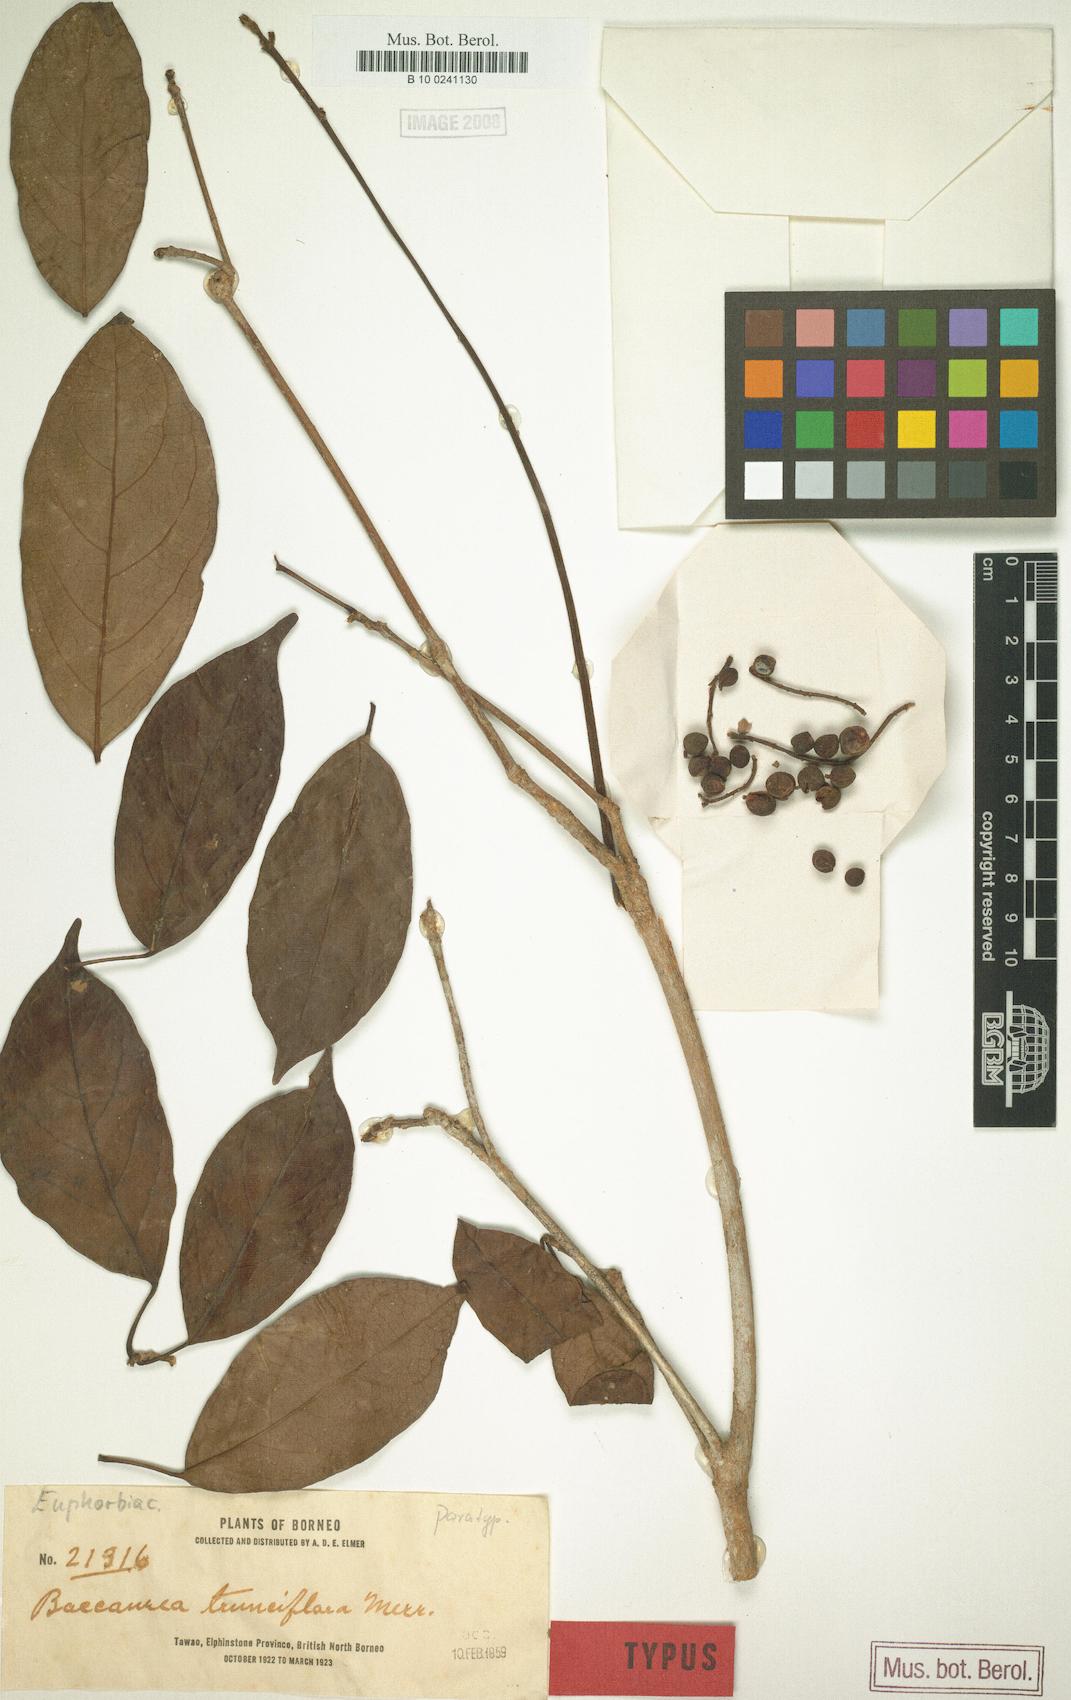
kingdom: Plantae
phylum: Tracheophyta
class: Magnoliopsida
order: Malpighiales
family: Phyllanthaceae
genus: Baccaurea
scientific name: Baccaurea odoratissima
